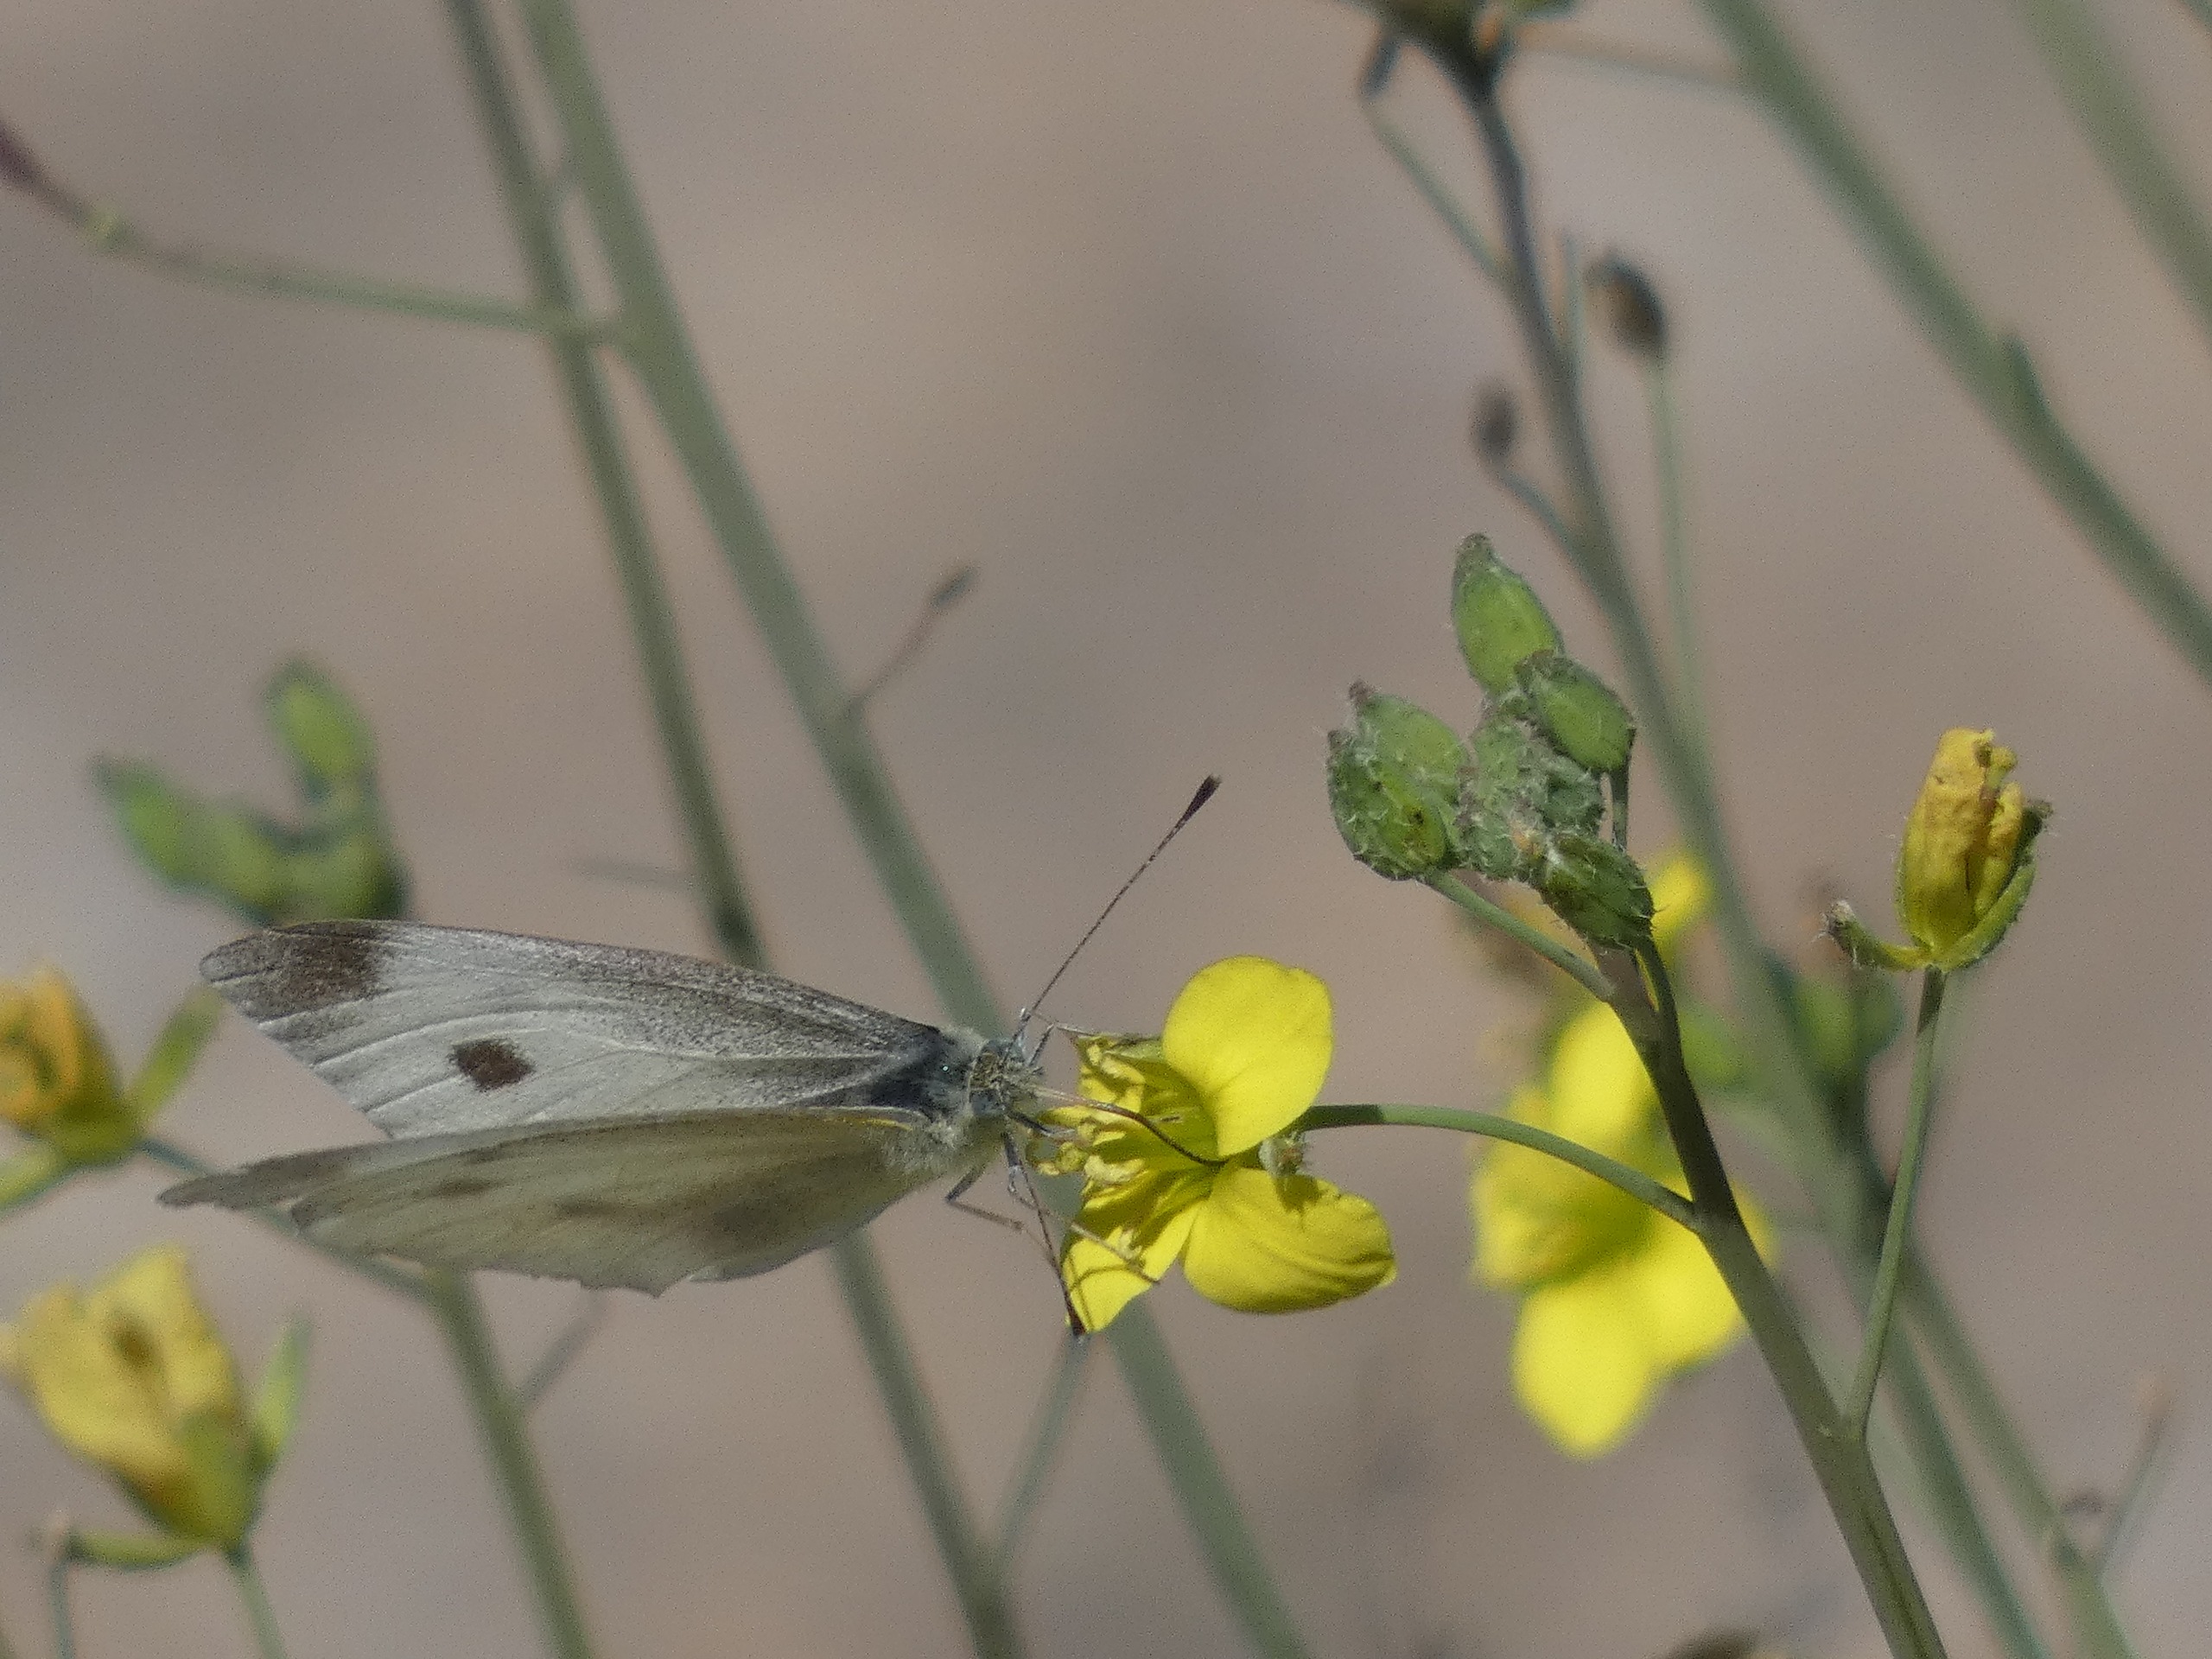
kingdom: Animalia
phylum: Arthropoda
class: Insecta
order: Lepidoptera
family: Pieridae
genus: Pieris
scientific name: Pieris rapae
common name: Lille kålsommerfugl
